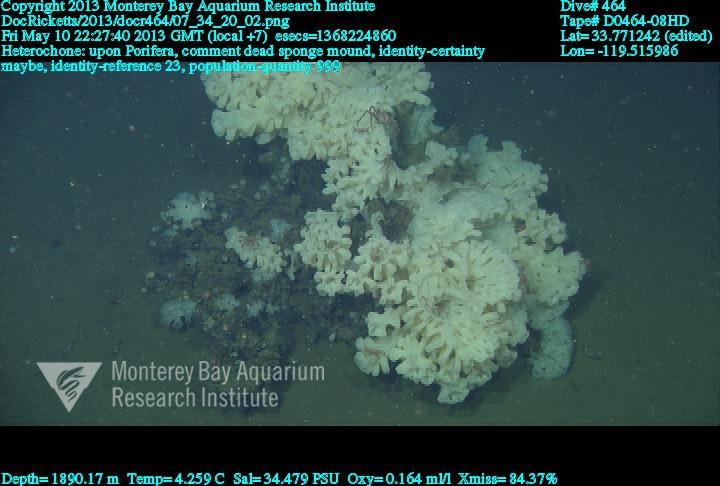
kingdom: Animalia
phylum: Porifera
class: Hexactinellida
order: Sceptrulophora
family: Aphrocallistidae
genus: Heterochone
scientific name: Heterochone
